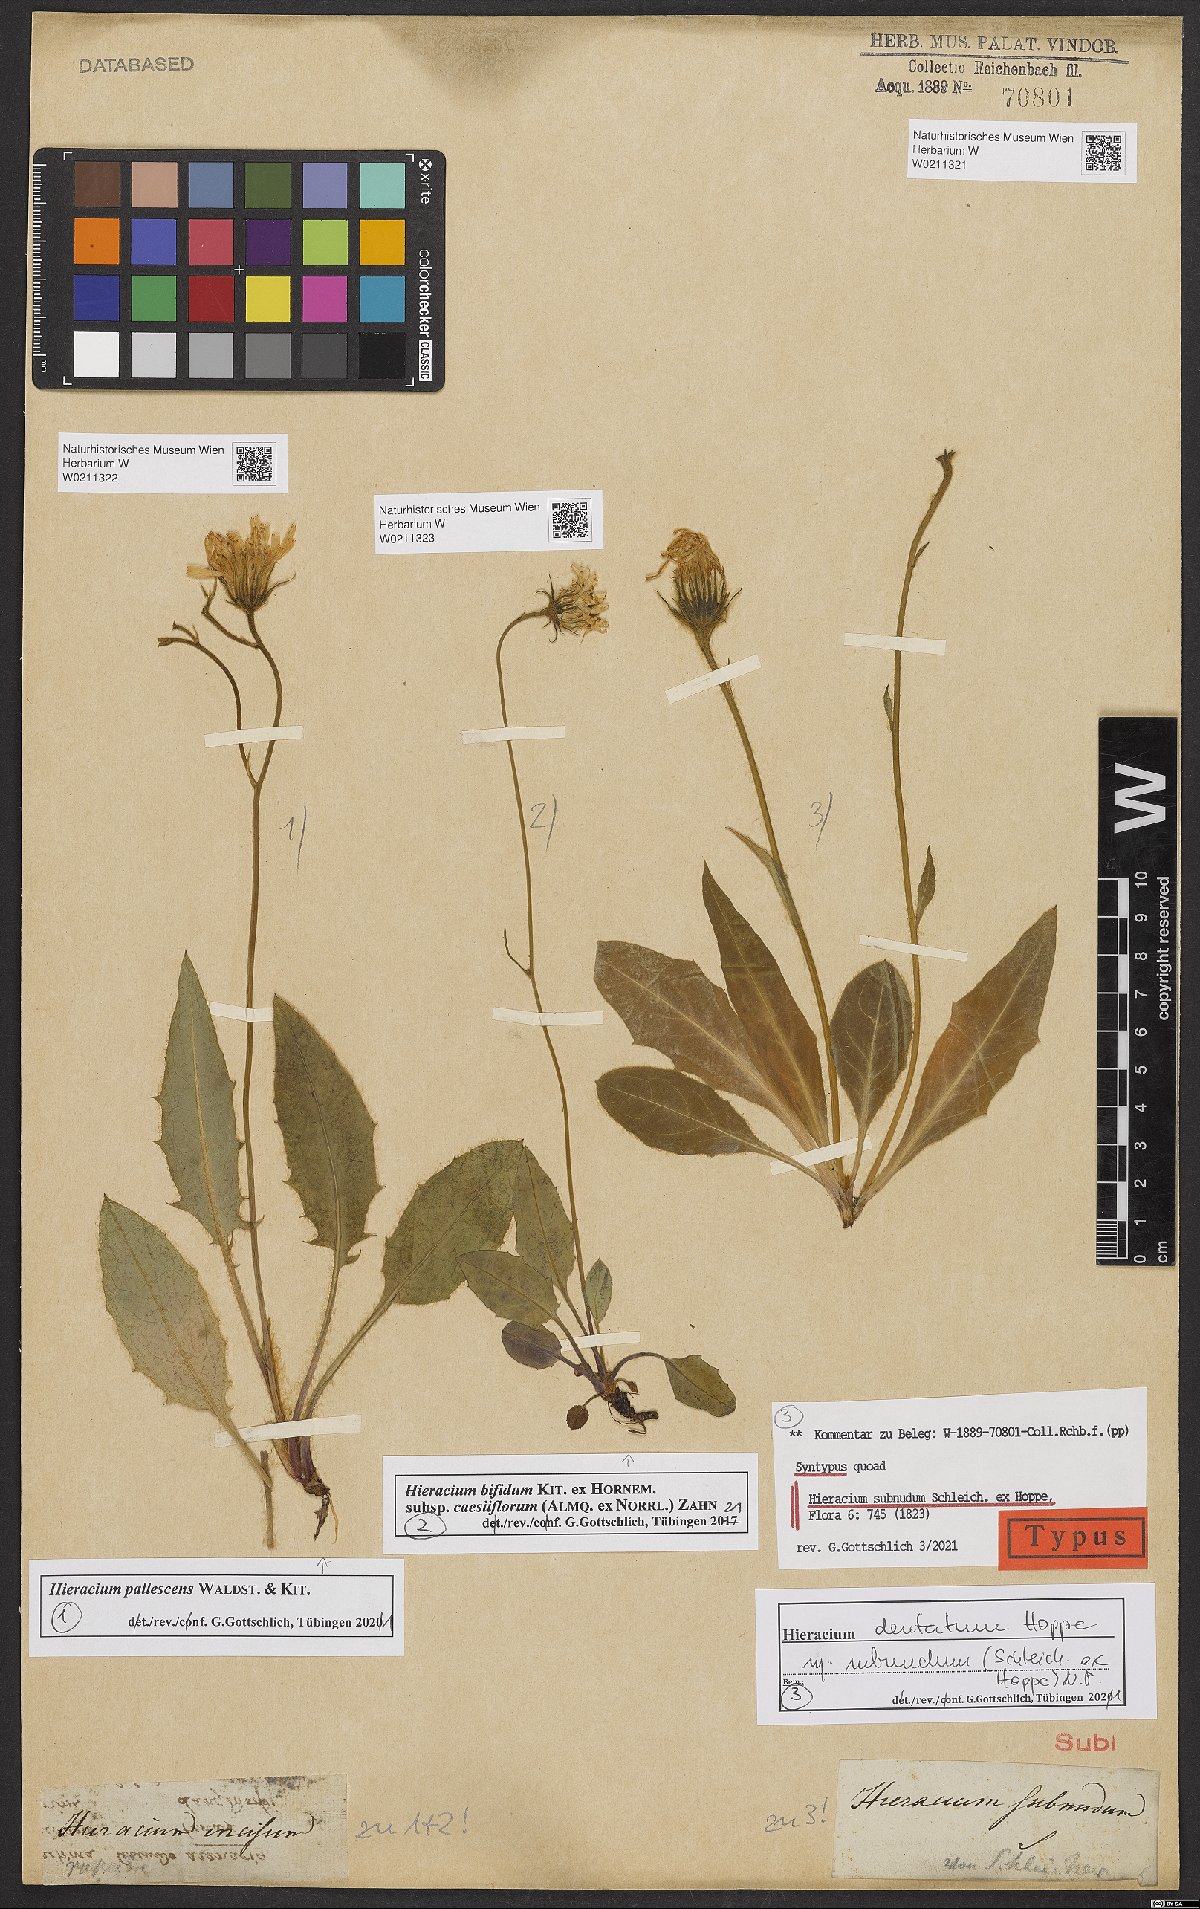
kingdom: Plantae
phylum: Tracheophyta
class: Magnoliopsida
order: Asterales
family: Asteraceae
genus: Hieracium
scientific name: Hieracium dentatum
